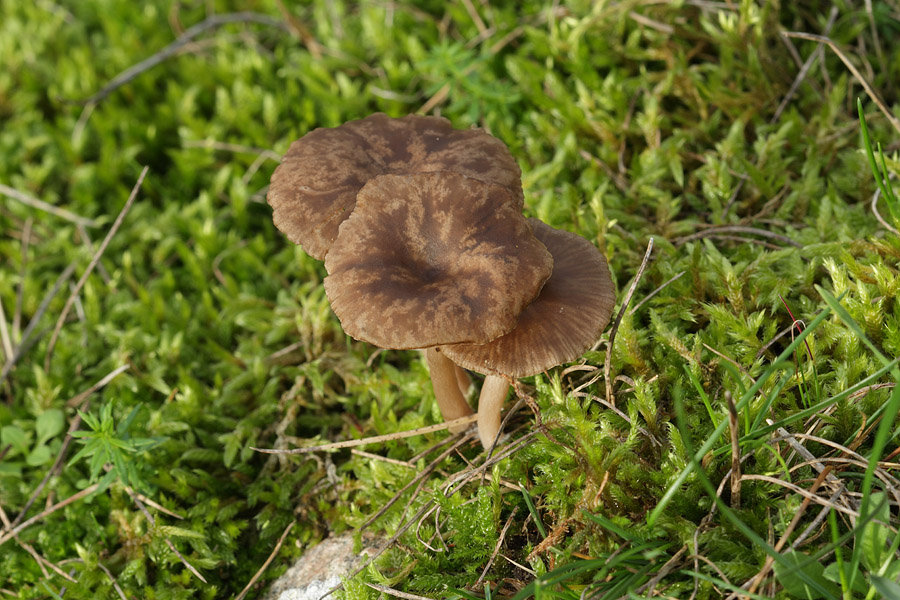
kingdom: Fungi
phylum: Basidiomycota
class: Agaricomycetes
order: Agaricales
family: Pseudoclitocybaceae
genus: Pseudoclitocybe
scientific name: Pseudoclitocybe expallens
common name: lille bægertragthat
